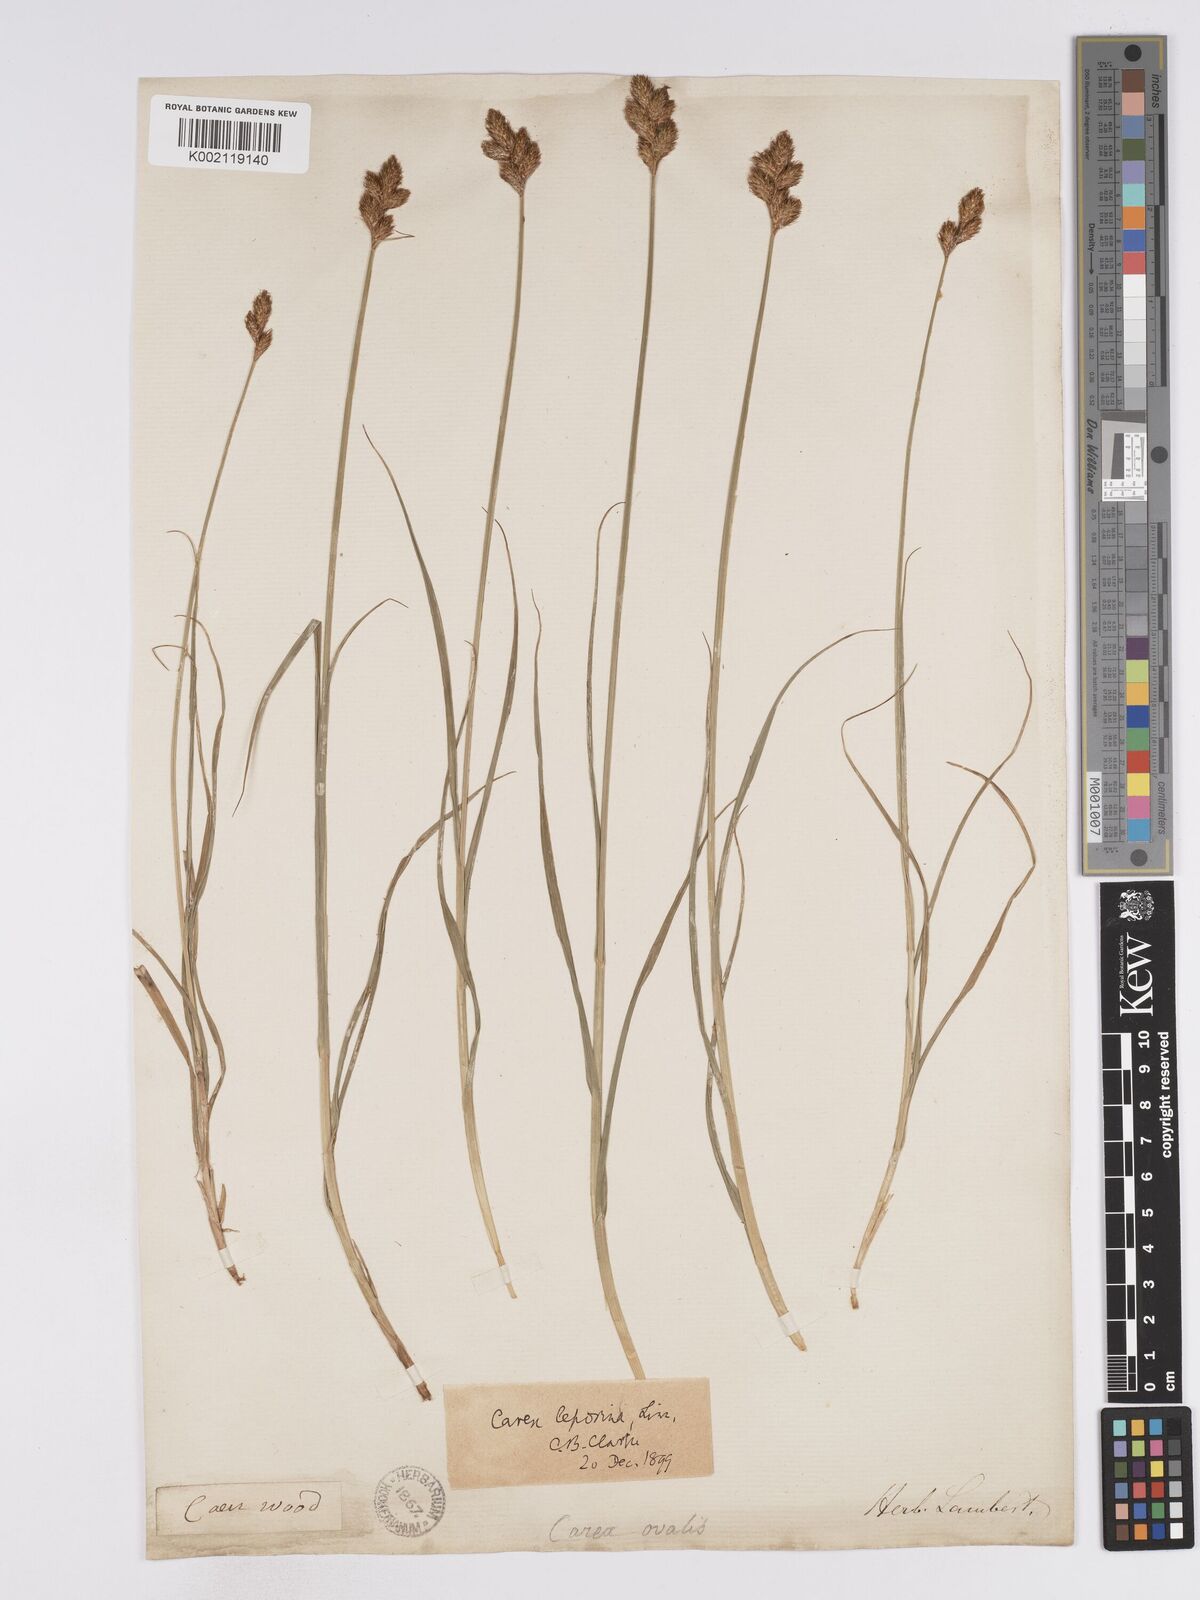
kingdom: Plantae
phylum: Tracheophyta
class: Liliopsida
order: Poales
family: Cyperaceae
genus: Carex
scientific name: Carex leporina
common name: Oval sedge
